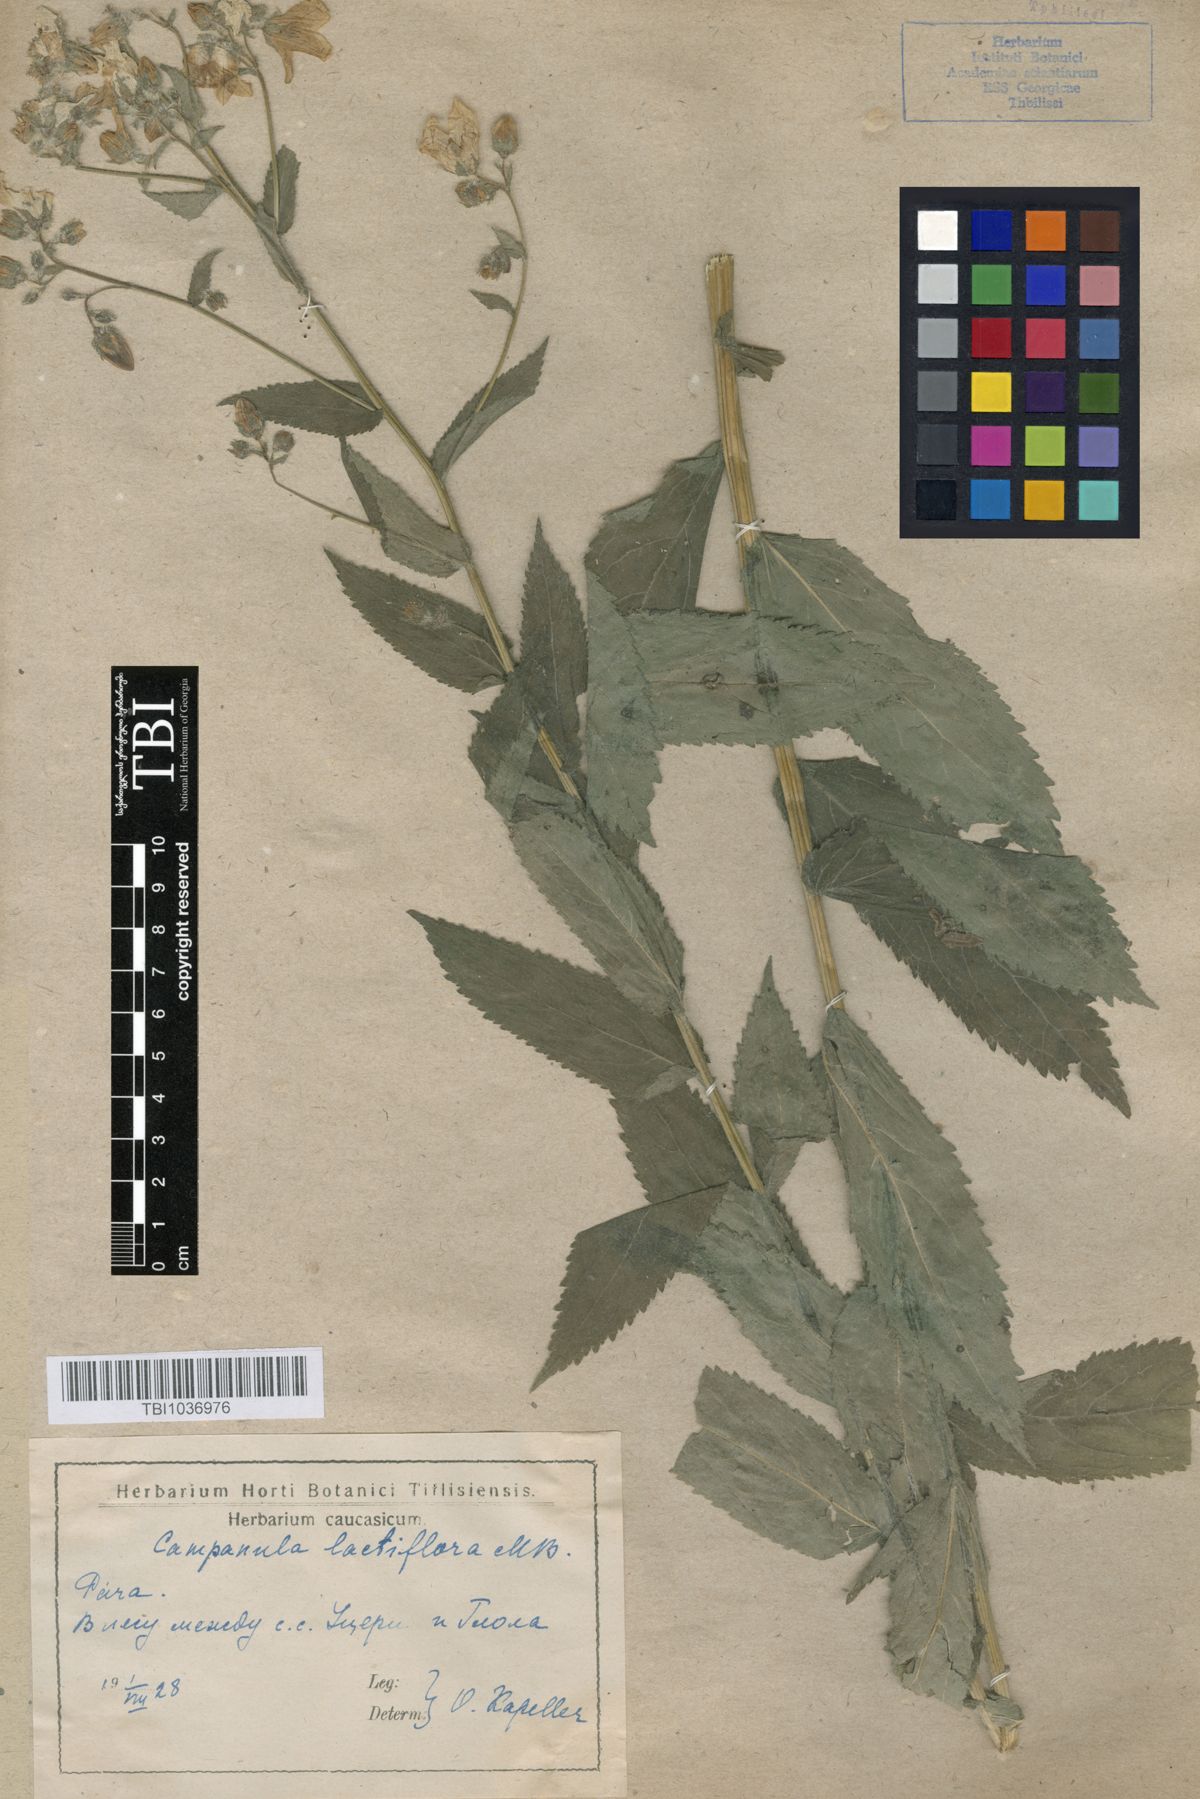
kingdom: Plantae
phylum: Tracheophyta
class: Magnoliopsida
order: Asterales
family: Campanulaceae
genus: Campanula
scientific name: Campanula lactiflora
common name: Milky bellflower
